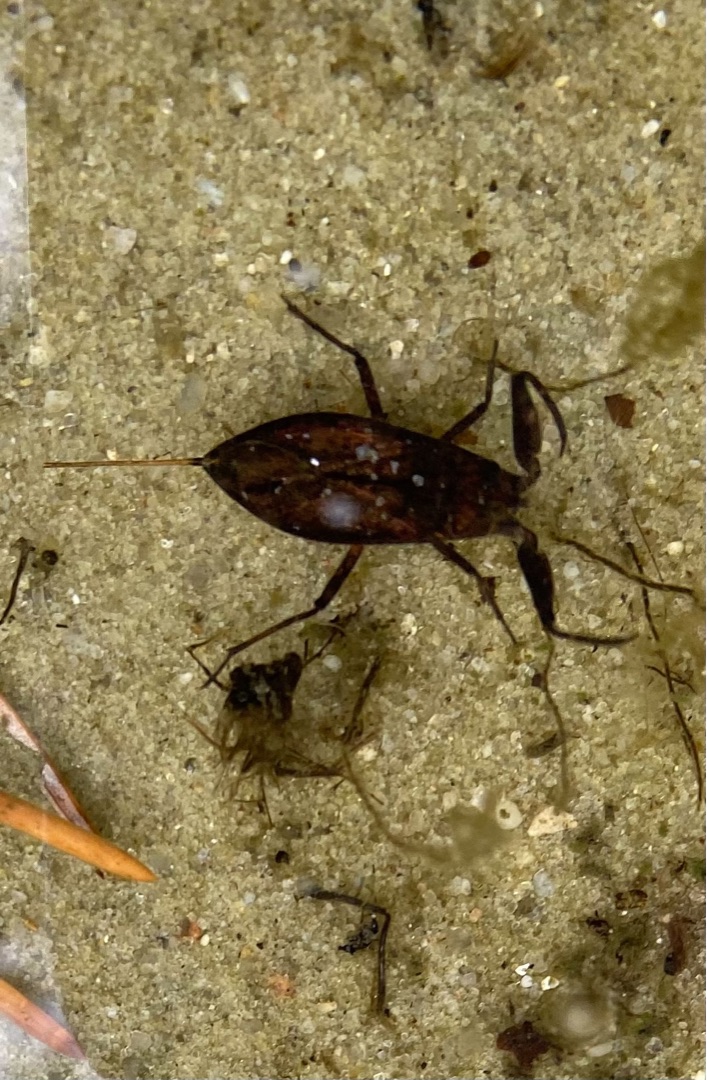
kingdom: Animalia
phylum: Arthropoda
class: Insecta
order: Hemiptera
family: Nepidae
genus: Nepa
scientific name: Nepa cinerea
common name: Skorpiontæge
